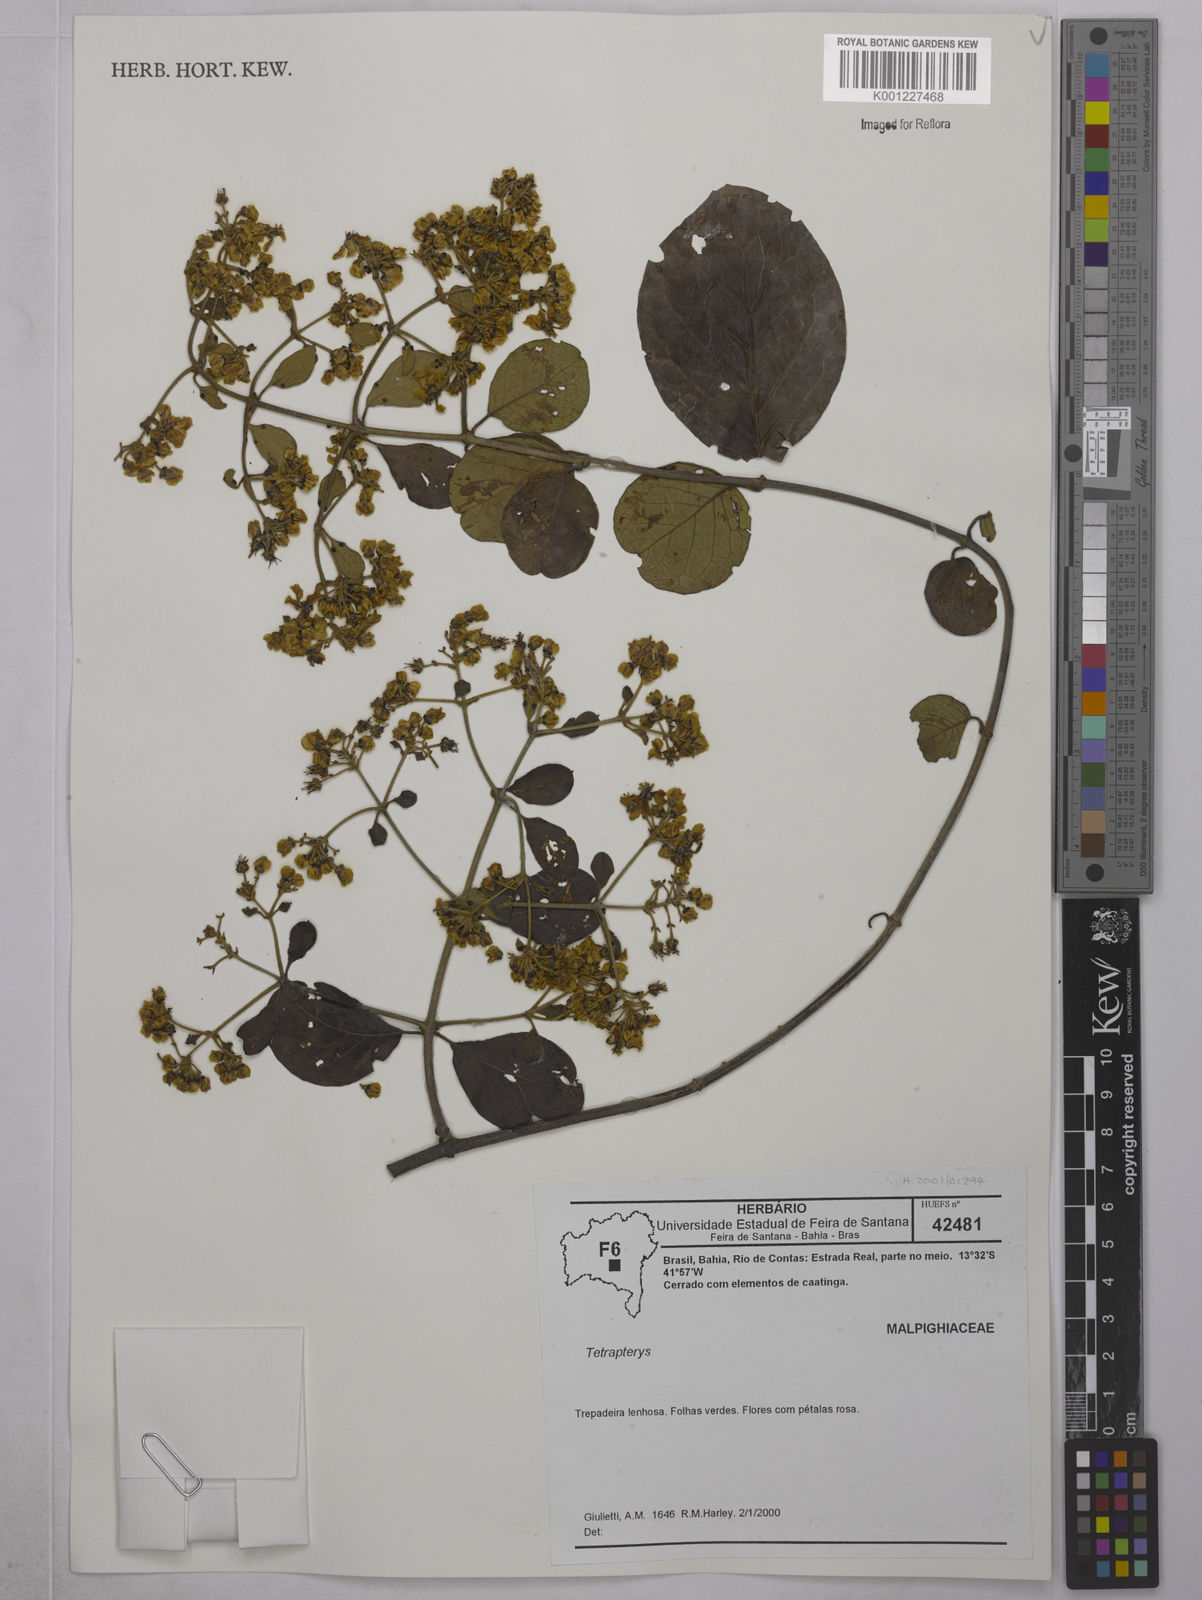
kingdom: Plantae
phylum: Tracheophyta
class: Magnoliopsida
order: Malpighiales
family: Malpighiaceae
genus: Tetrapterys
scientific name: Tetrapterys
